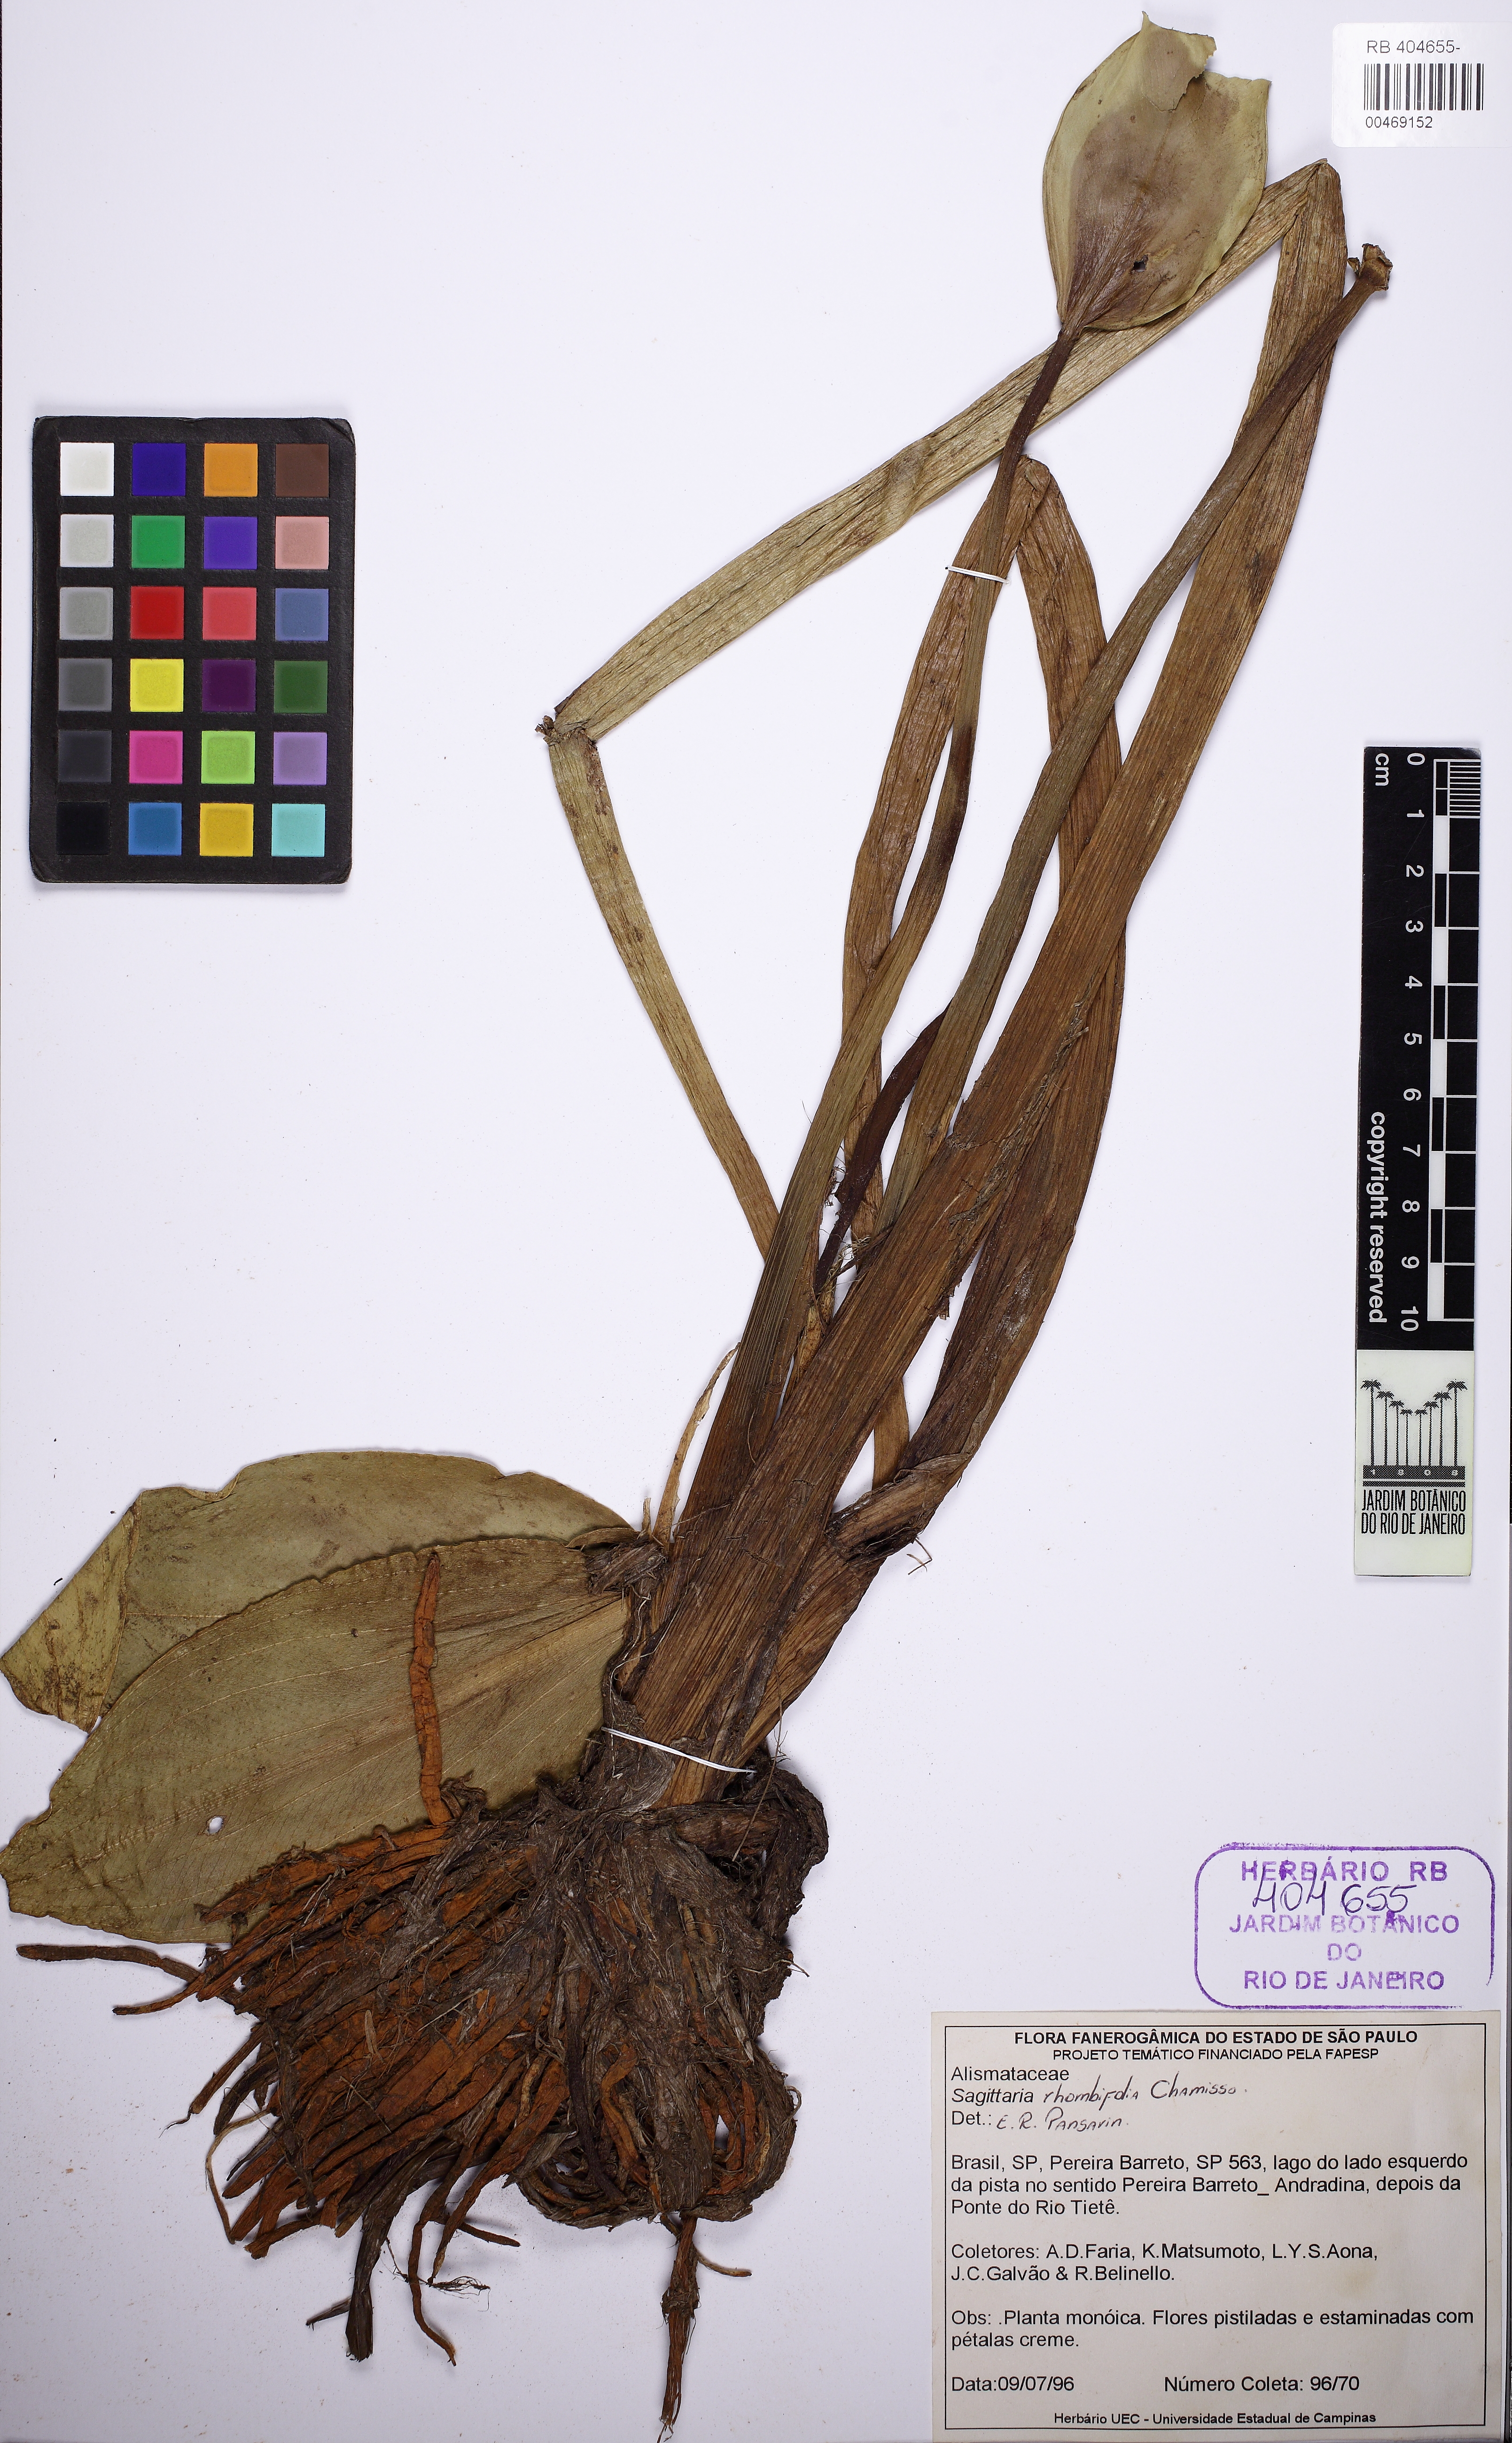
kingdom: Plantae
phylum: Tracheophyta
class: Liliopsida
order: Alismatales
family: Alismataceae
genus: Sagittaria
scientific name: Sagittaria rhombifolia
